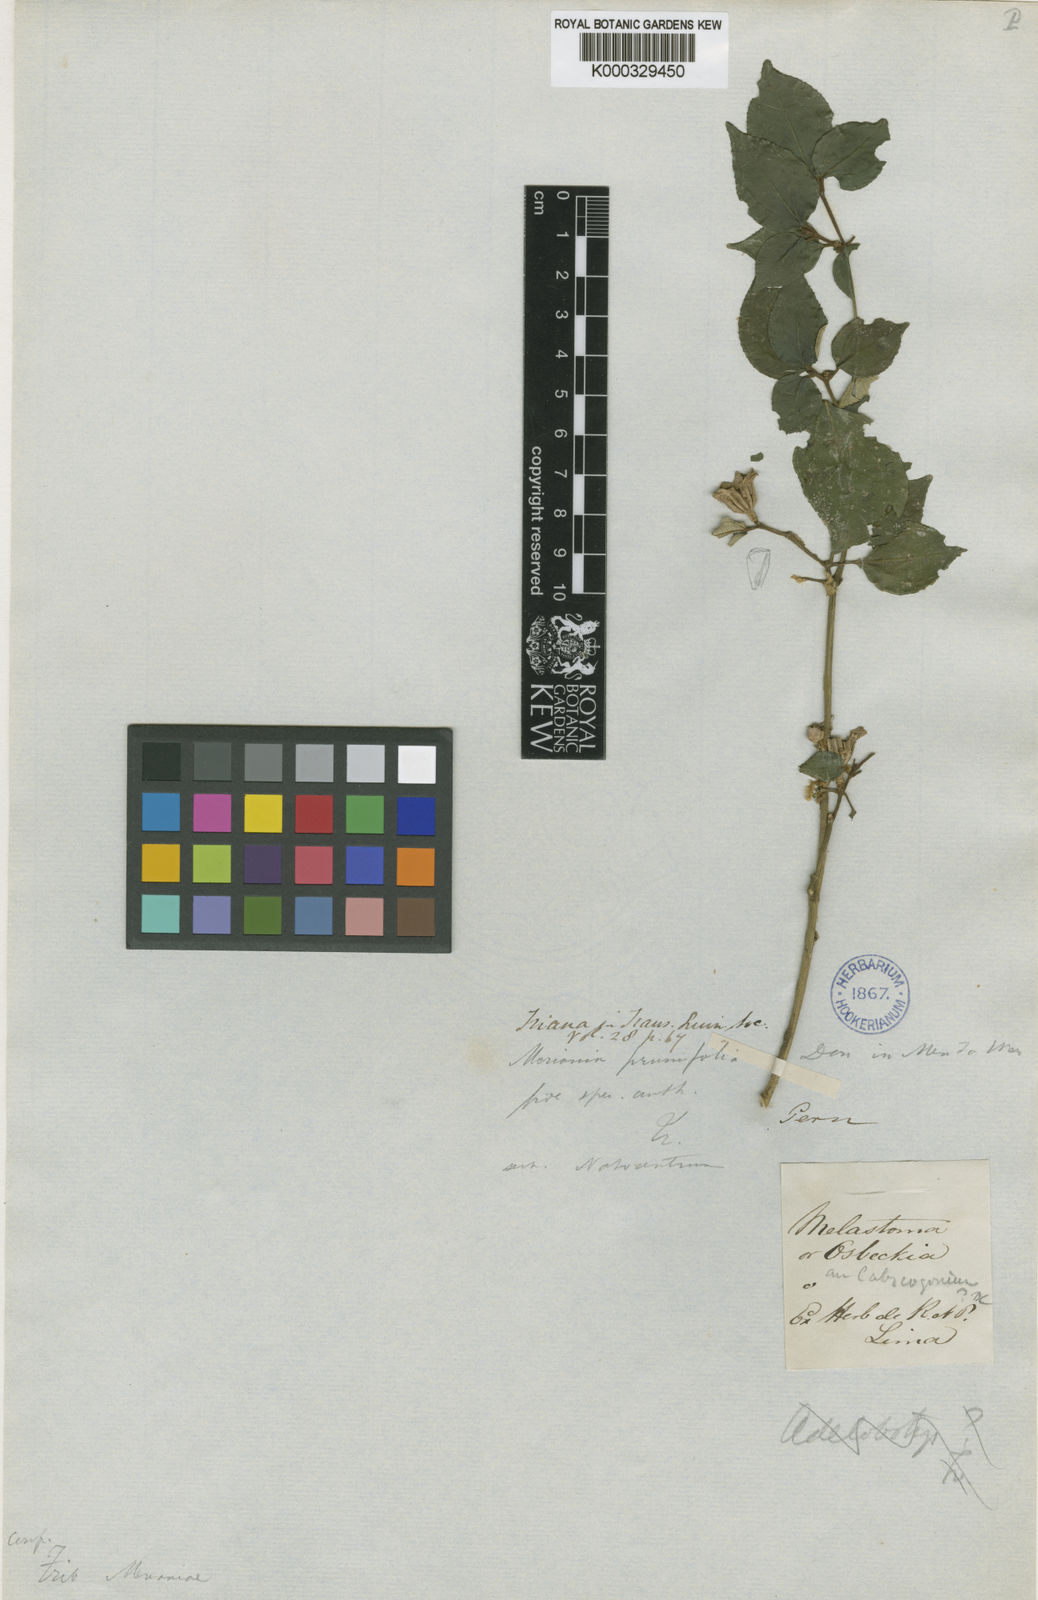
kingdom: Plantae
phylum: Tracheophyta
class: Magnoliopsida
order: Myrtales
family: Melastomataceae
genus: Meriania
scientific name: Meriania prunifolia
